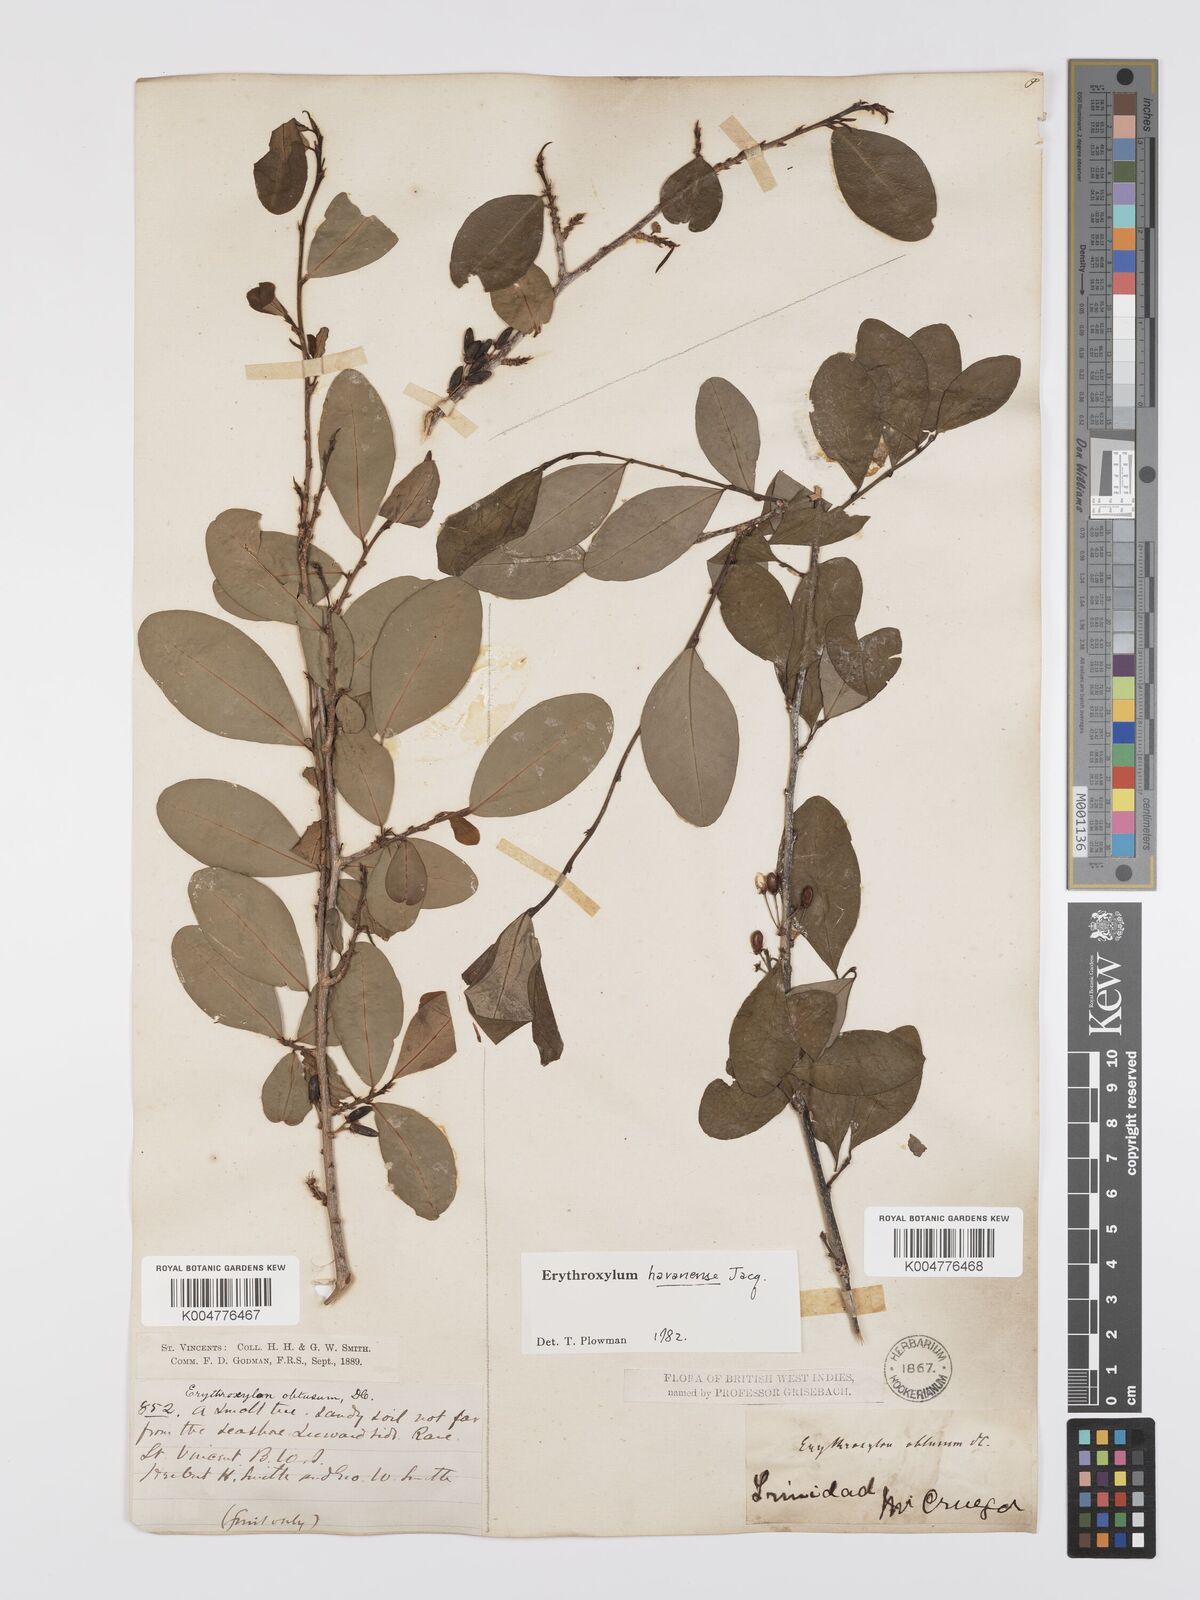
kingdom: Plantae
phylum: Tracheophyta
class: Magnoliopsida
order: Malpighiales
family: Erythroxylaceae
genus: Erythroxylum
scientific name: Erythroxylum
